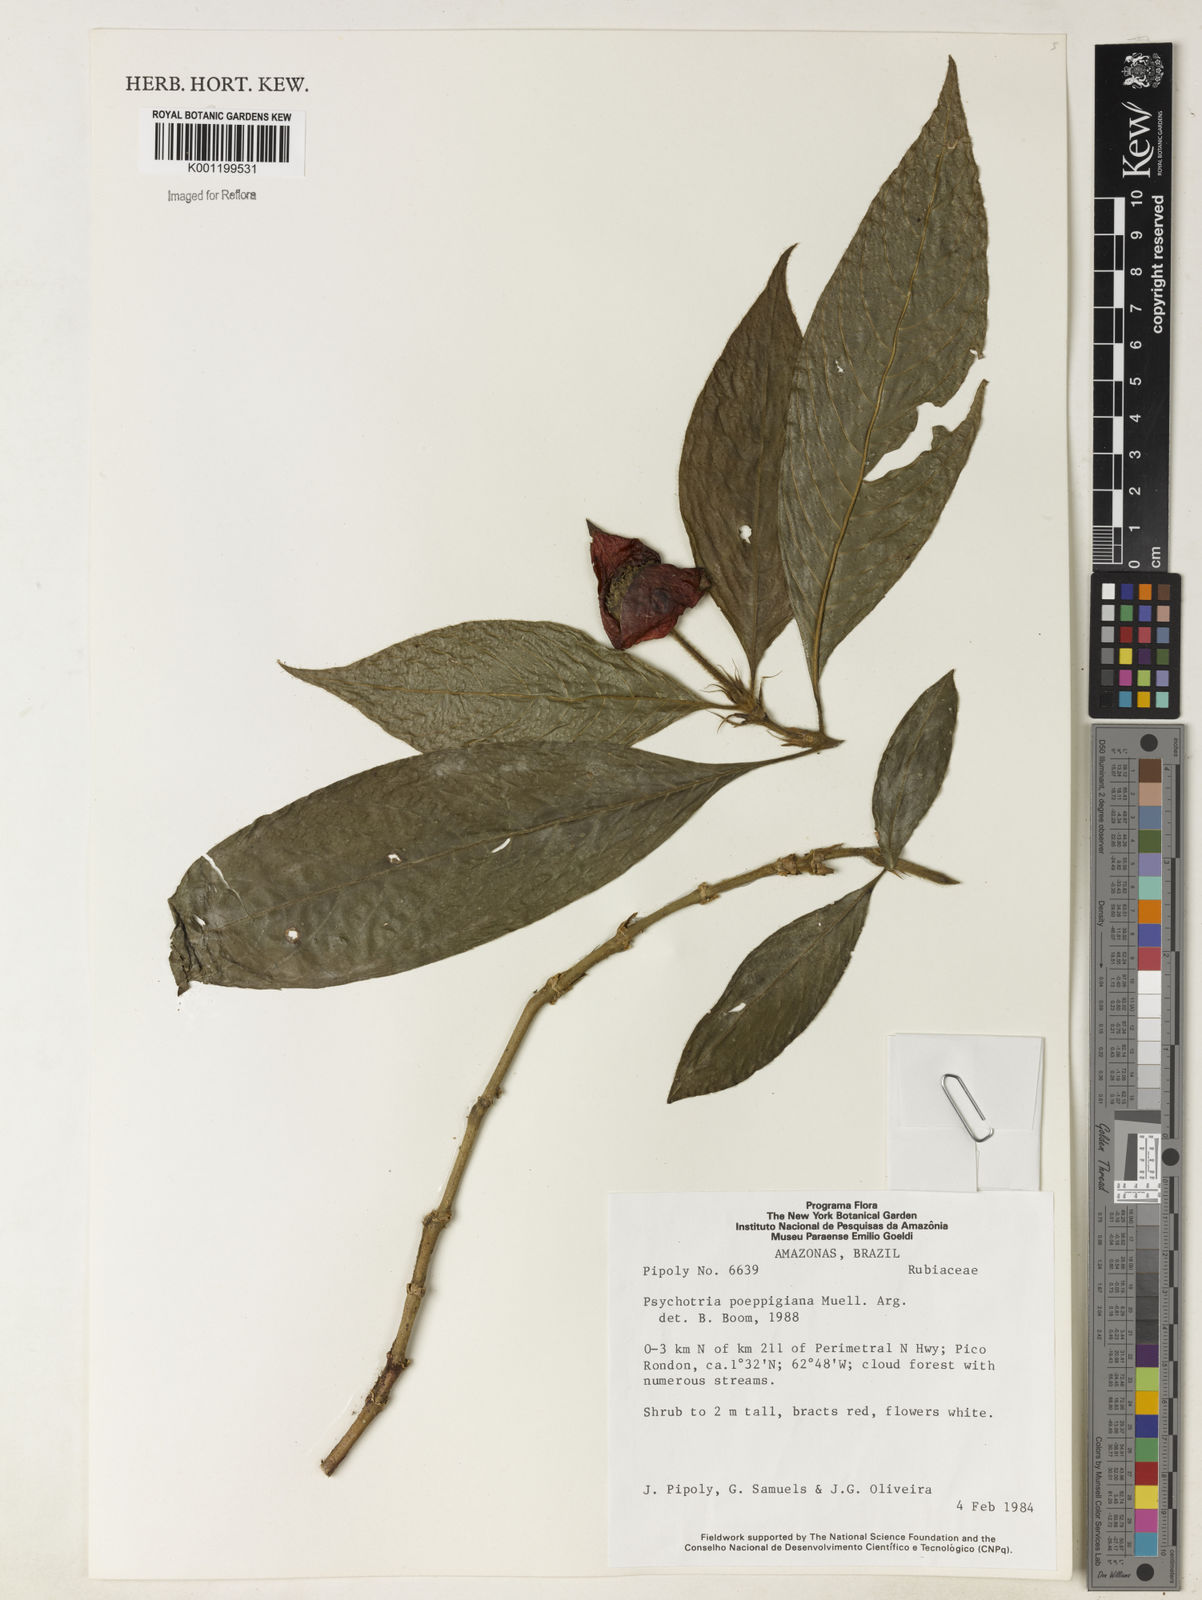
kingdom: Plantae
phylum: Tracheophyta
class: Magnoliopsida
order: Gentianales
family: Rubiaceae
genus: Psychotria
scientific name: Psychotria
